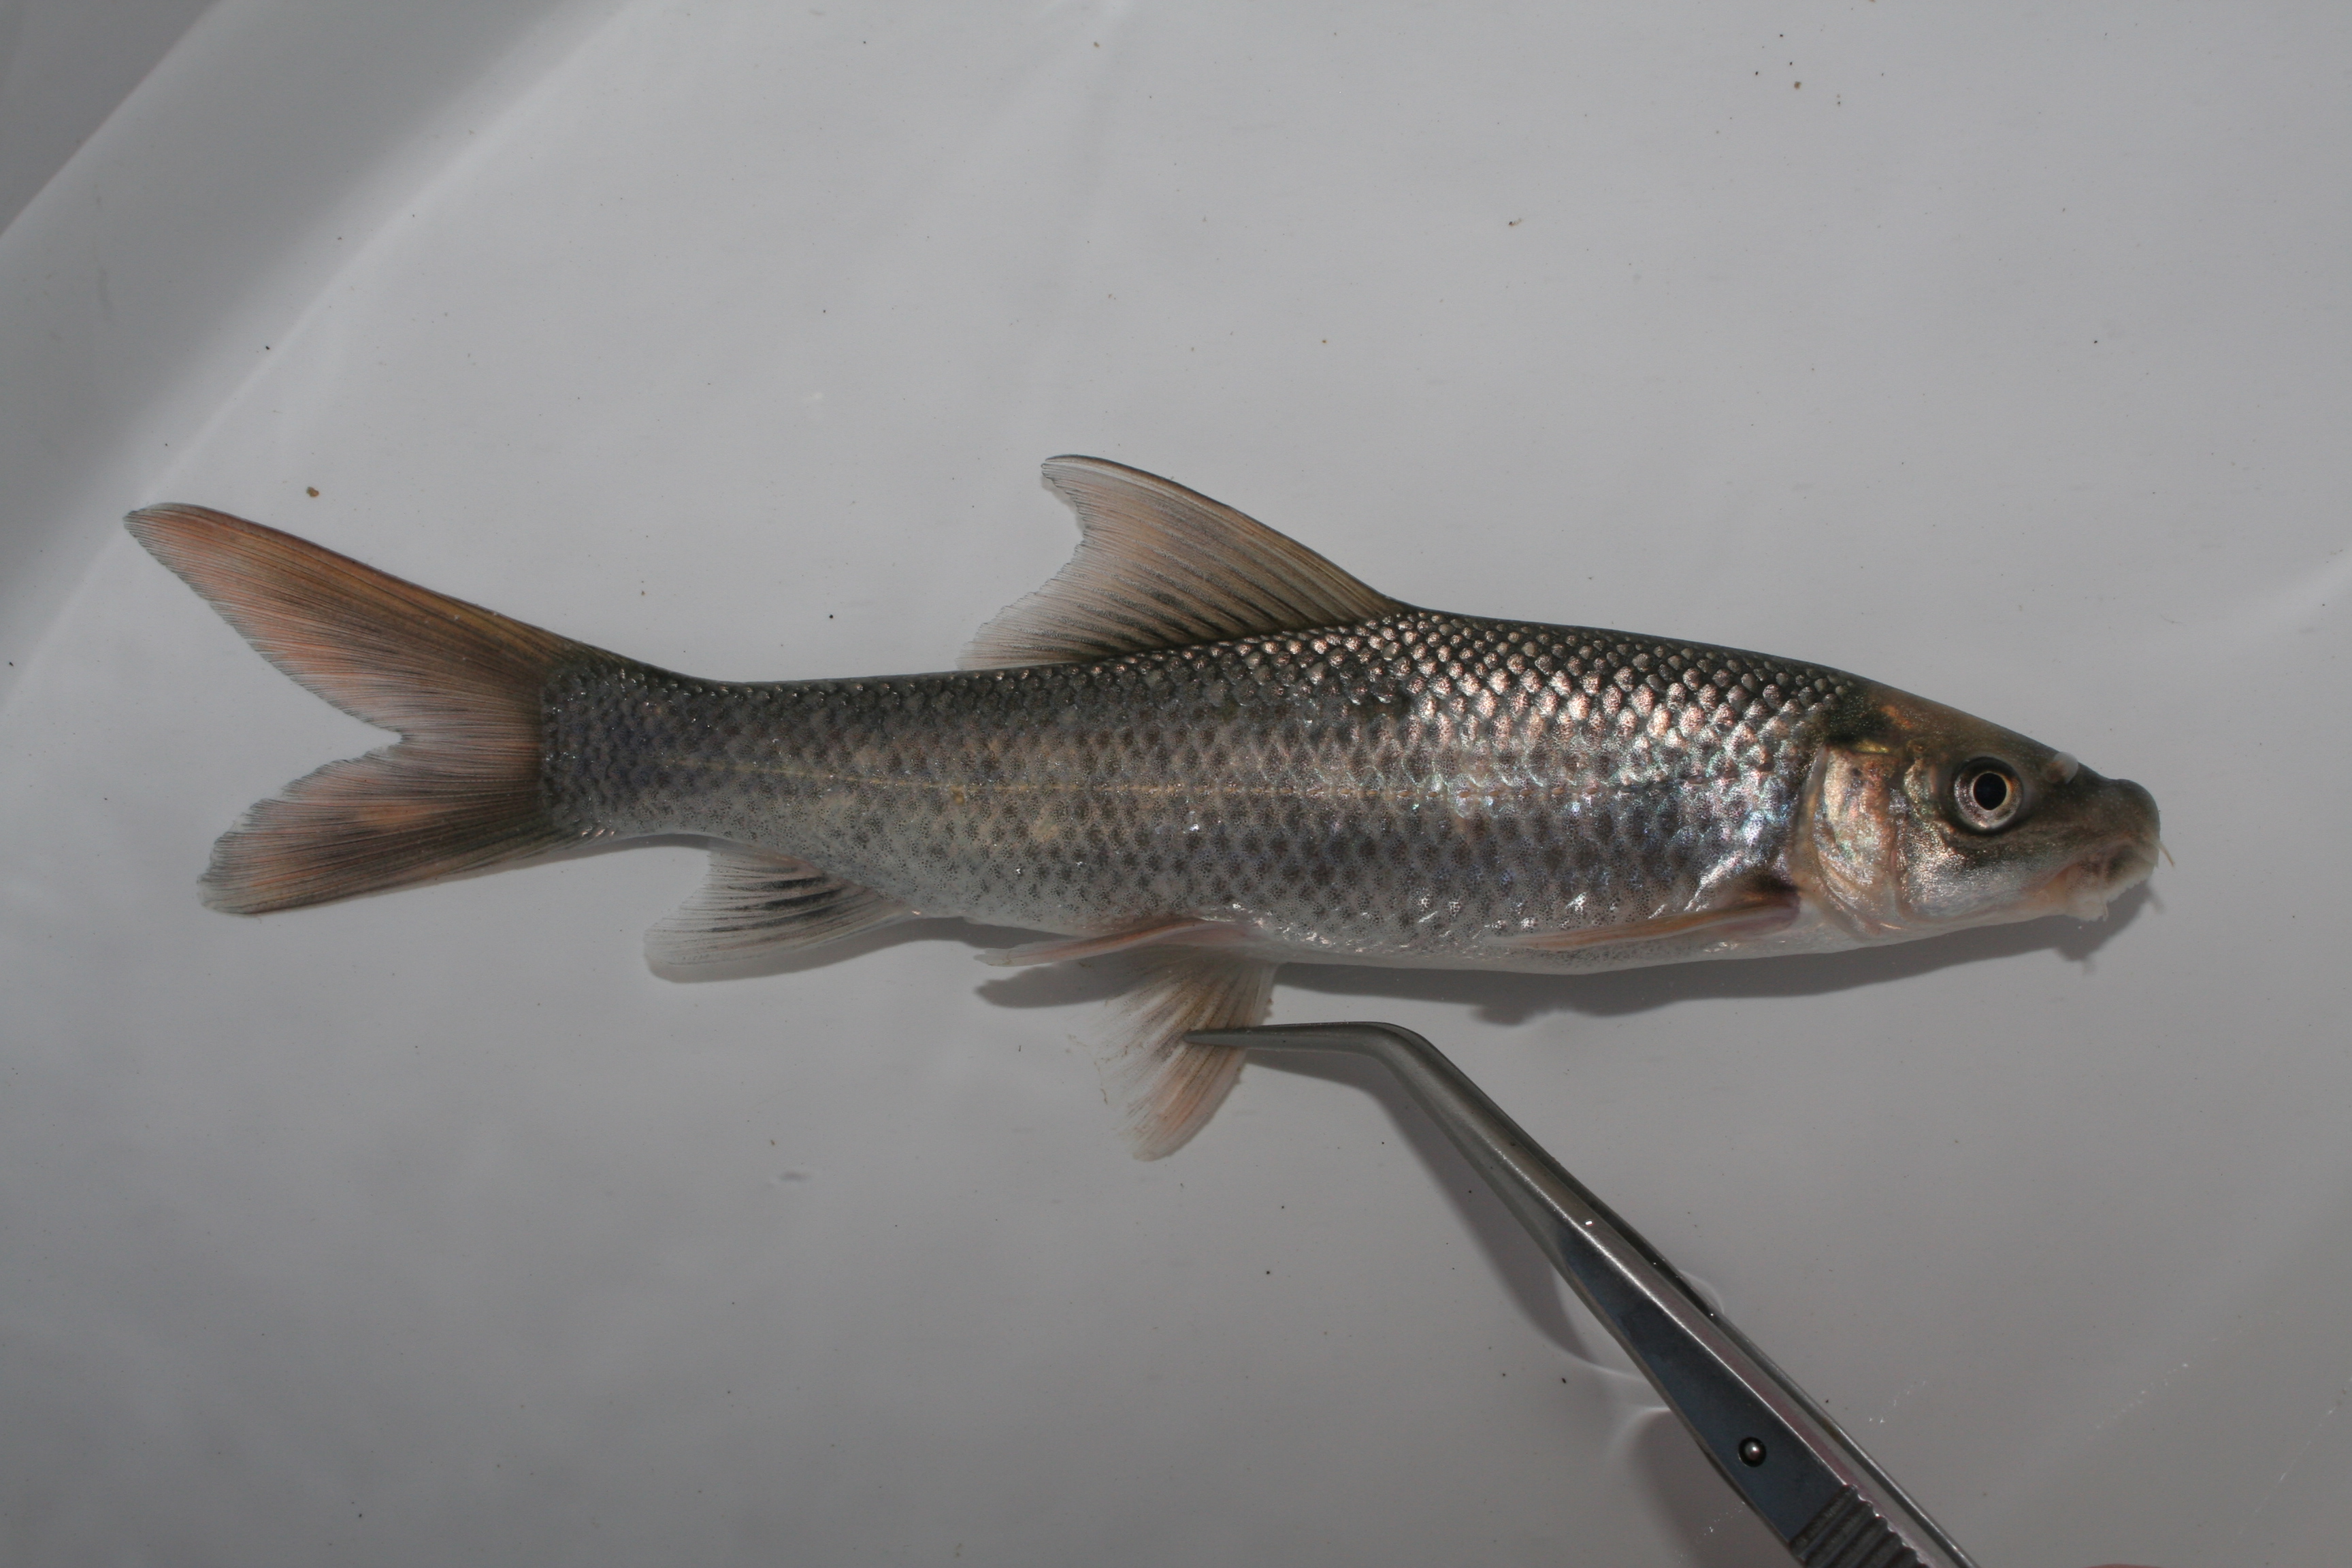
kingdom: Animalia
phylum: Chordata
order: Cypriniformes
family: Cyprinidae
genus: Labeo
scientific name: Labeo capensis
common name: Orange river mudfish
